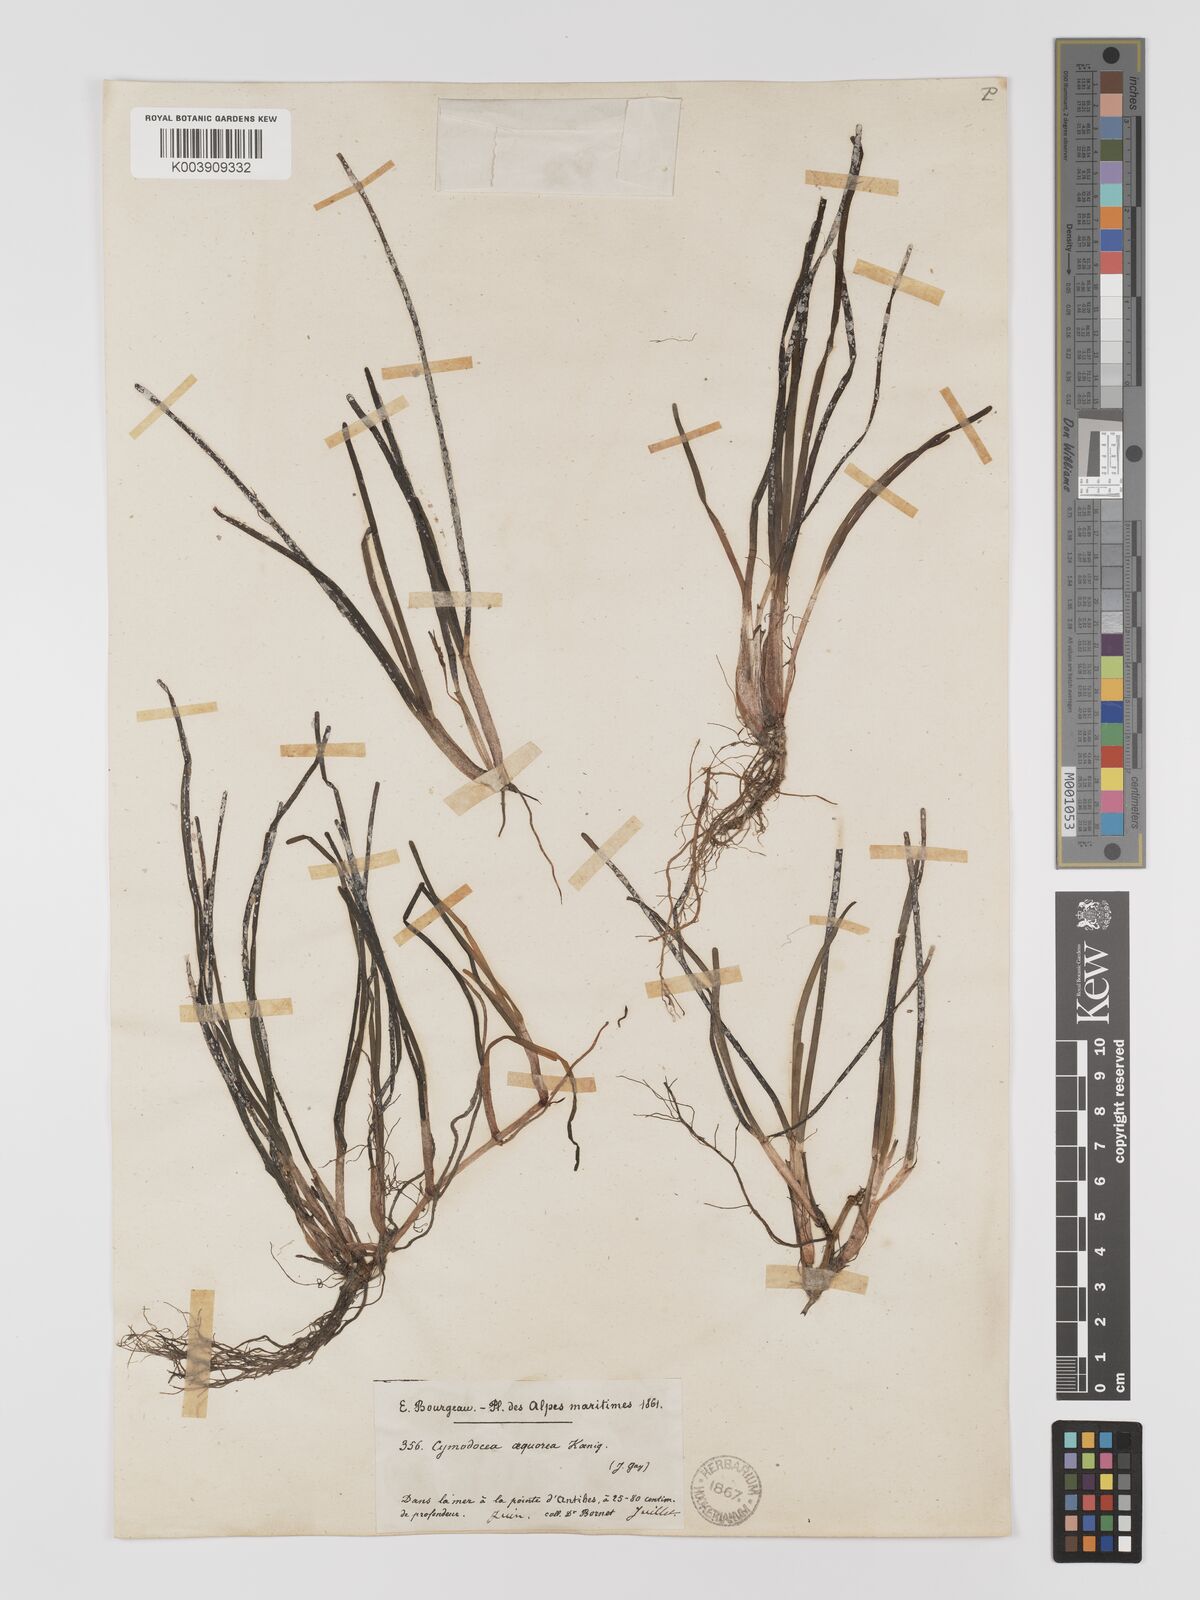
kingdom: Plantae
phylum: Tracheophyta
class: Liliopsida
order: Alismatales
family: Cymodoceaceae
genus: Cymodocea
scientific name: Cymodocea nodosa
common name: Slender seagrass
